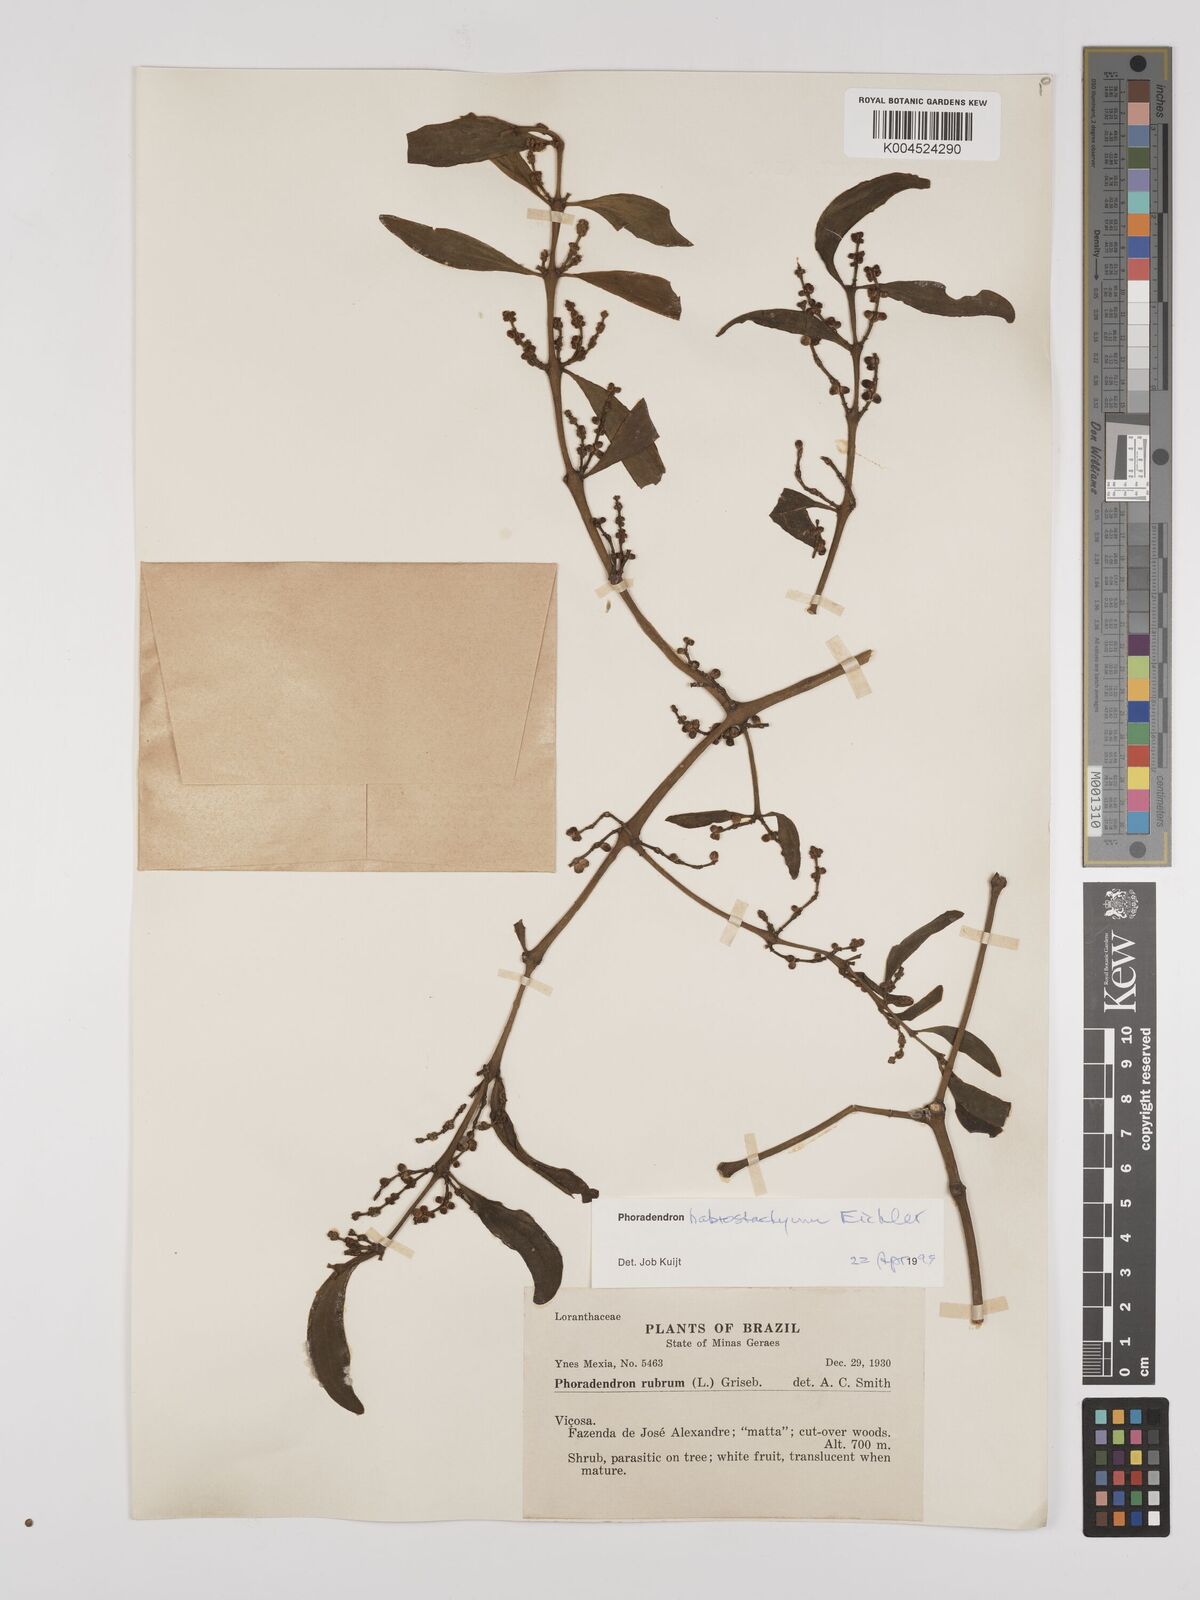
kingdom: Plantae
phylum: Tracheophyta
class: Magnoliopsida
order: Santalales
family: Viscaceae
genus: Phoradendron
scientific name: Phoradendron habrostachyum
